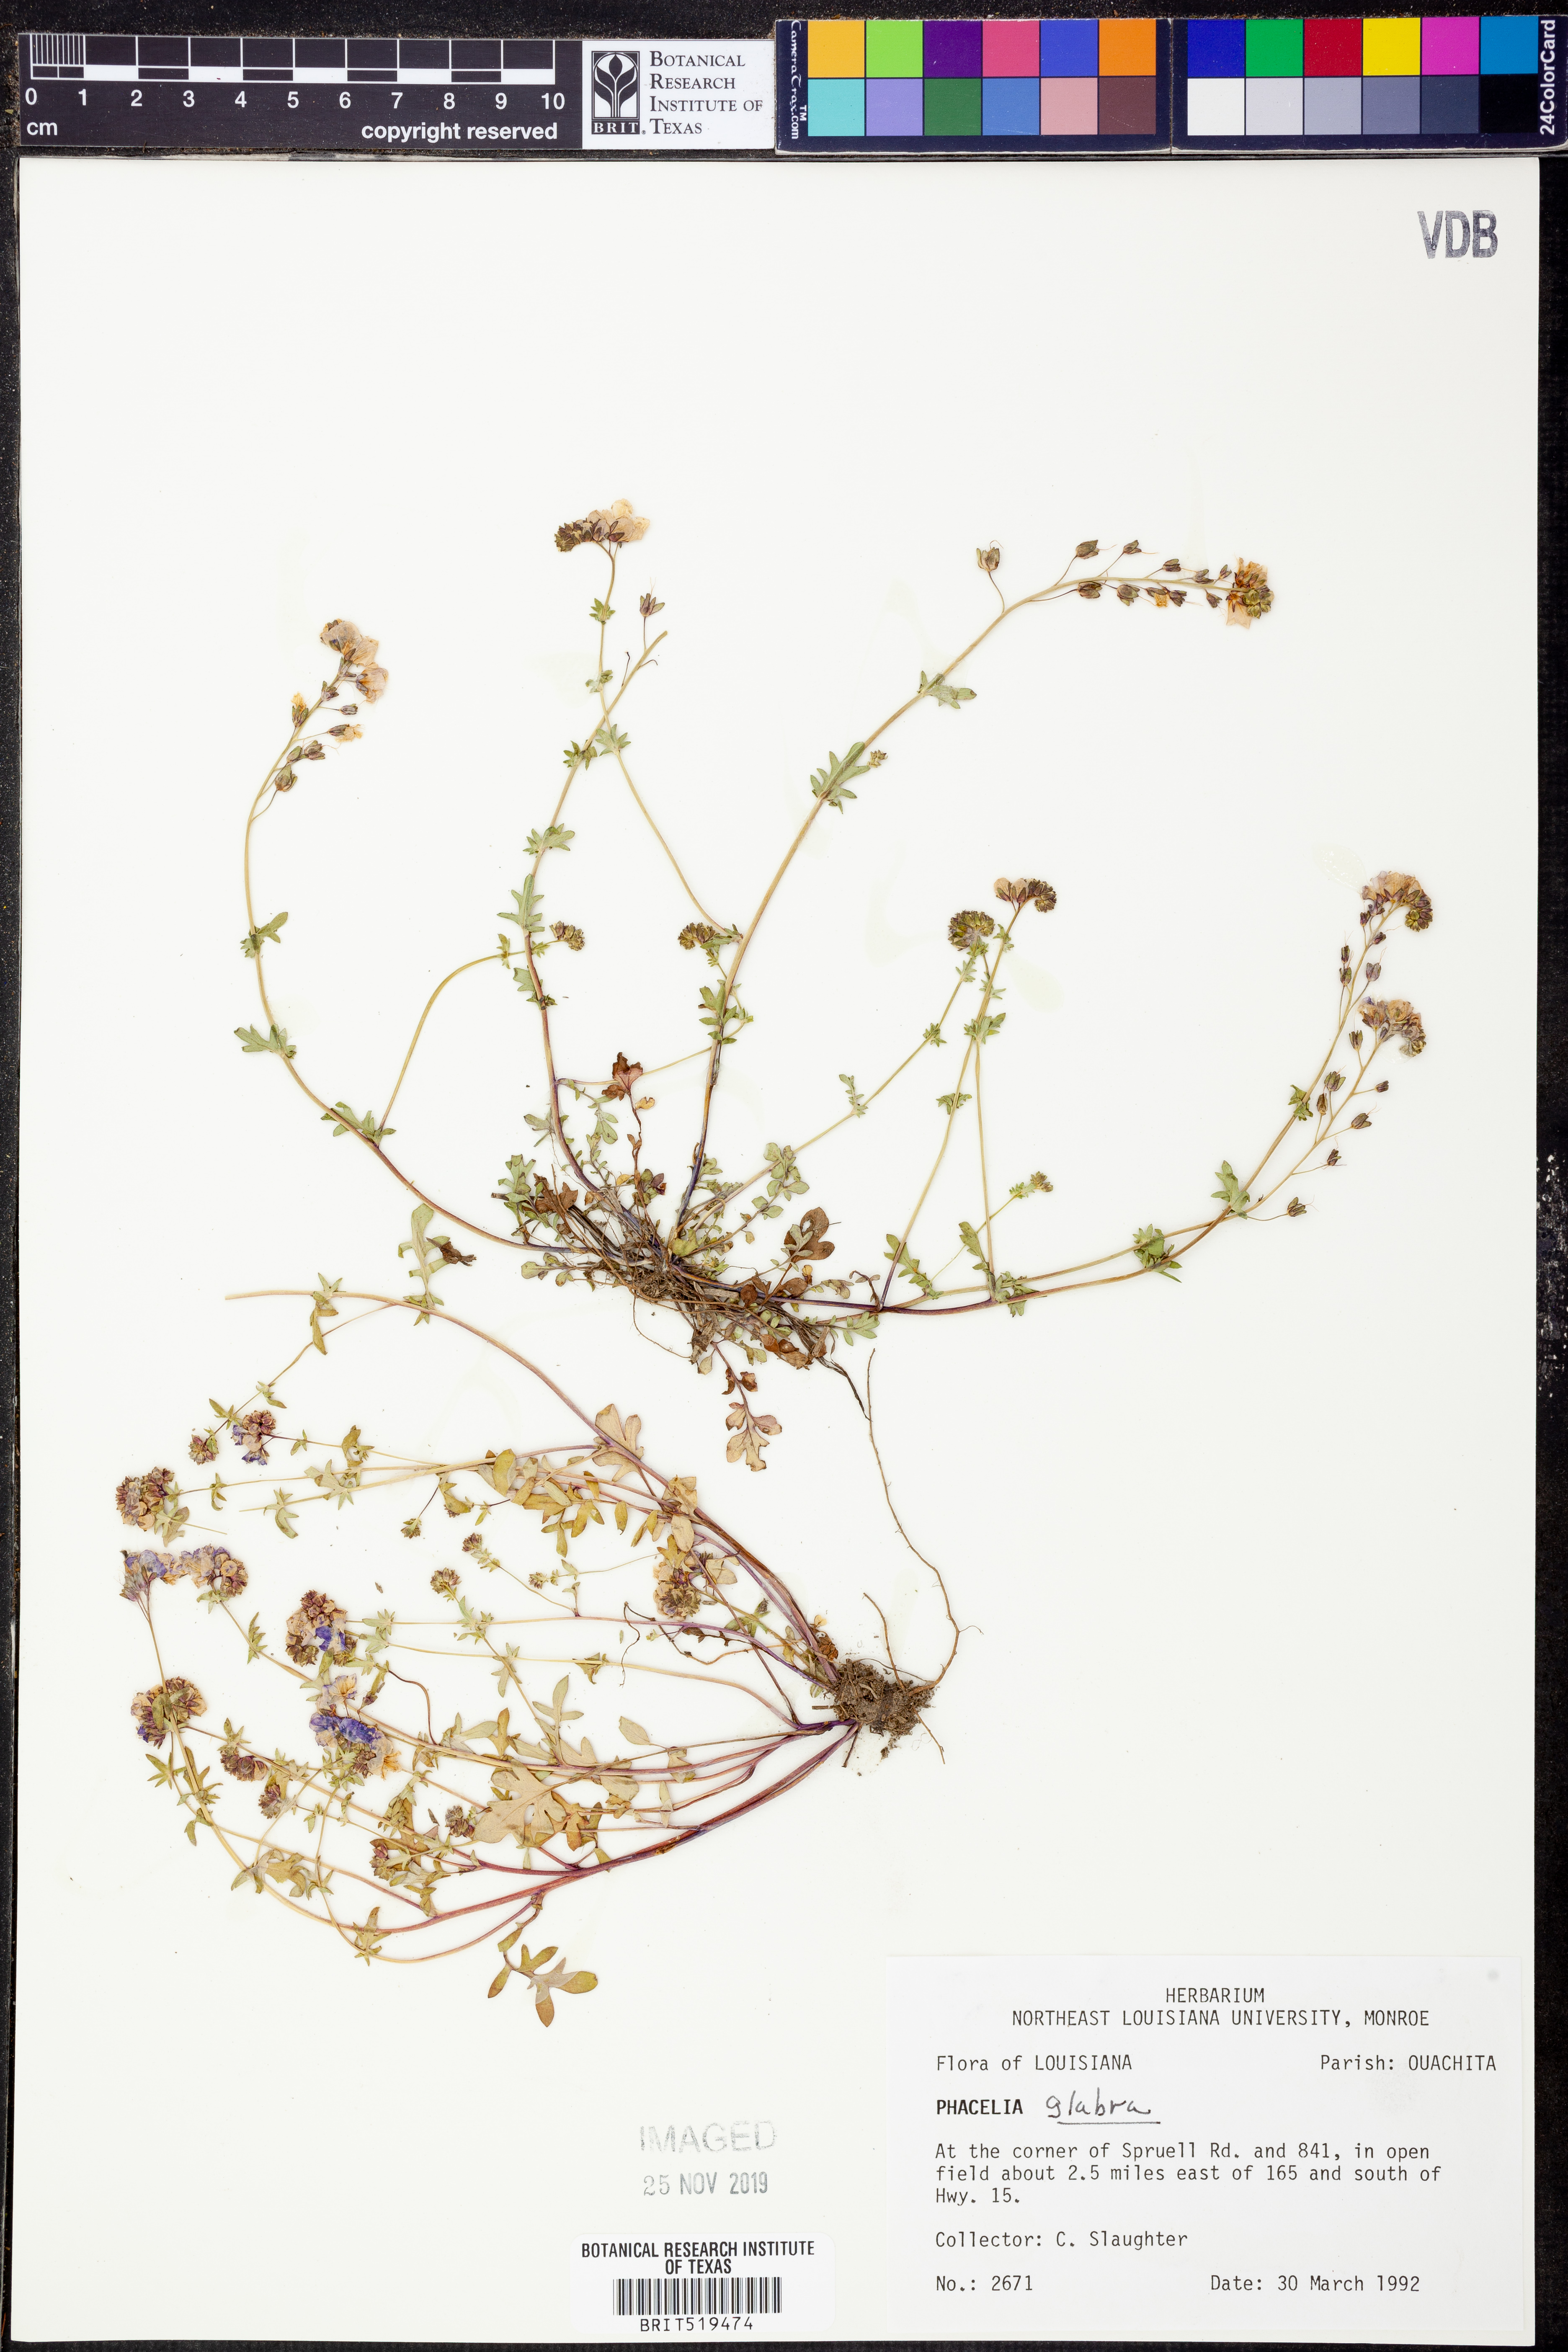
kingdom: Plantae
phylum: Tracheophyta
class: Magnoliopsida
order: Boraginales
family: Hydrophyllaceae
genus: Phacelia
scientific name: Phacelia glabra
